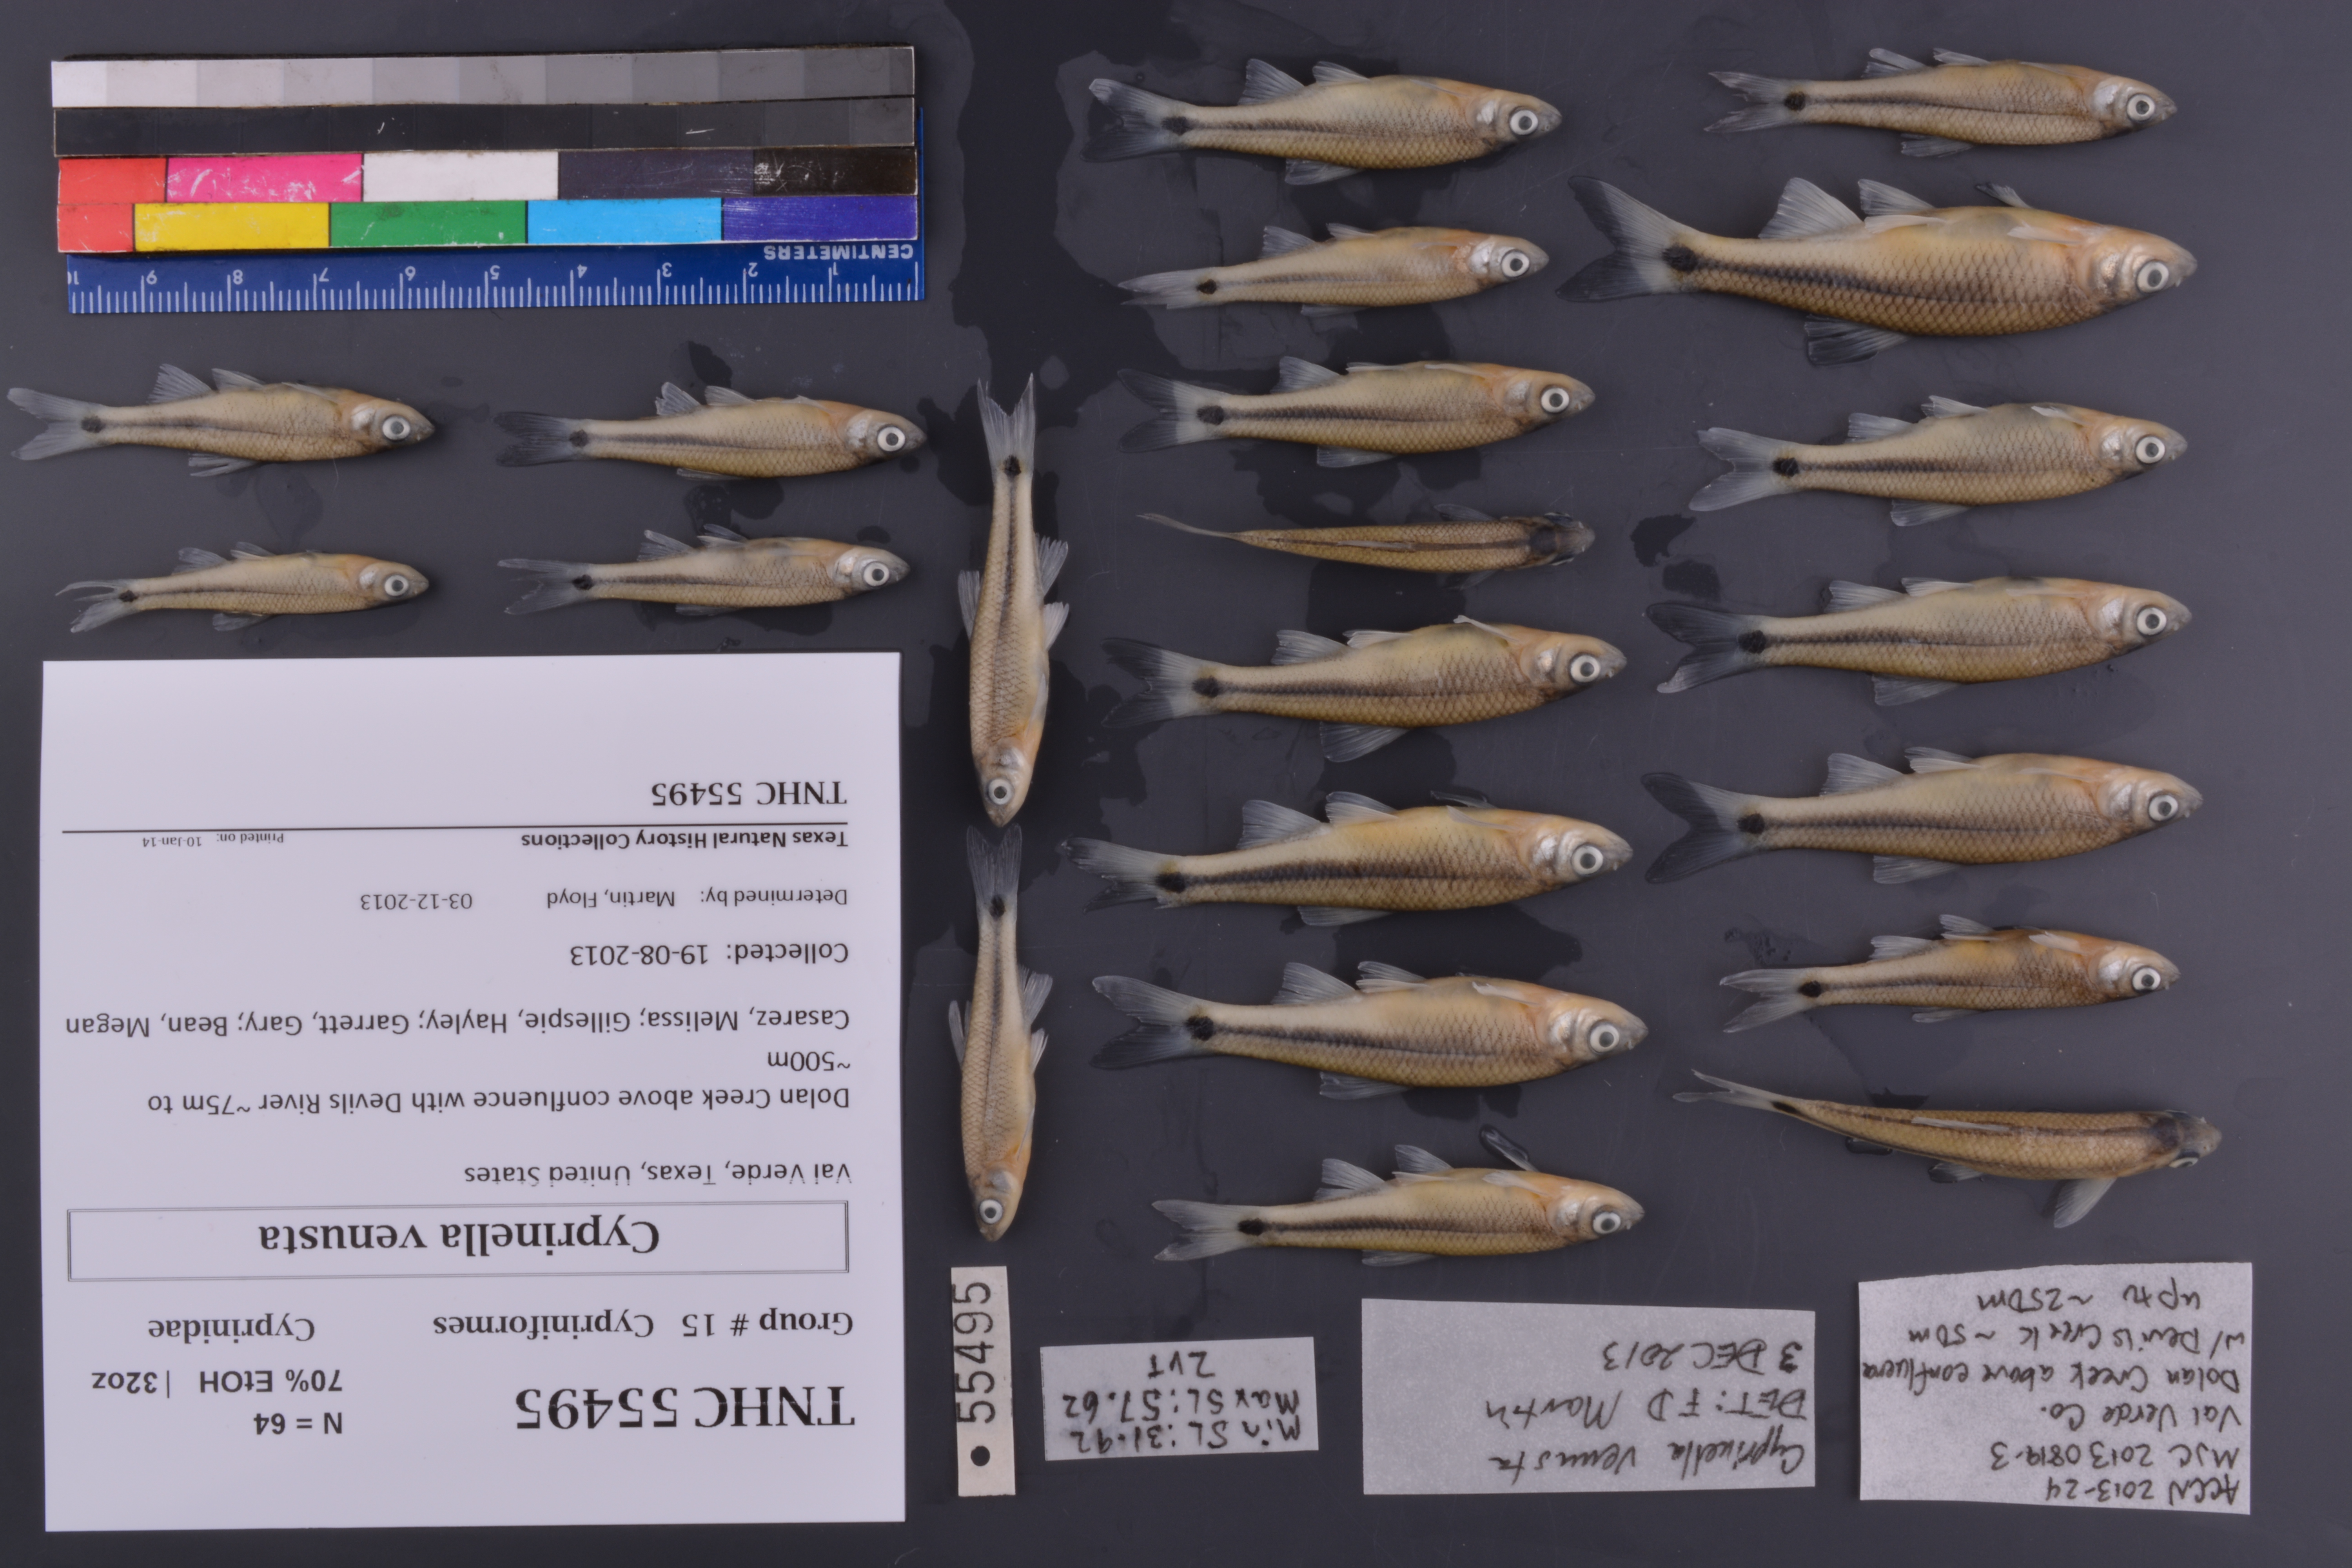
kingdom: Animalia
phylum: Chordata
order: Cypriniformes
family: Cyprinidae
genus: Cyprinella
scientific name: Cyprinella venusta
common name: Blacktail shiner
